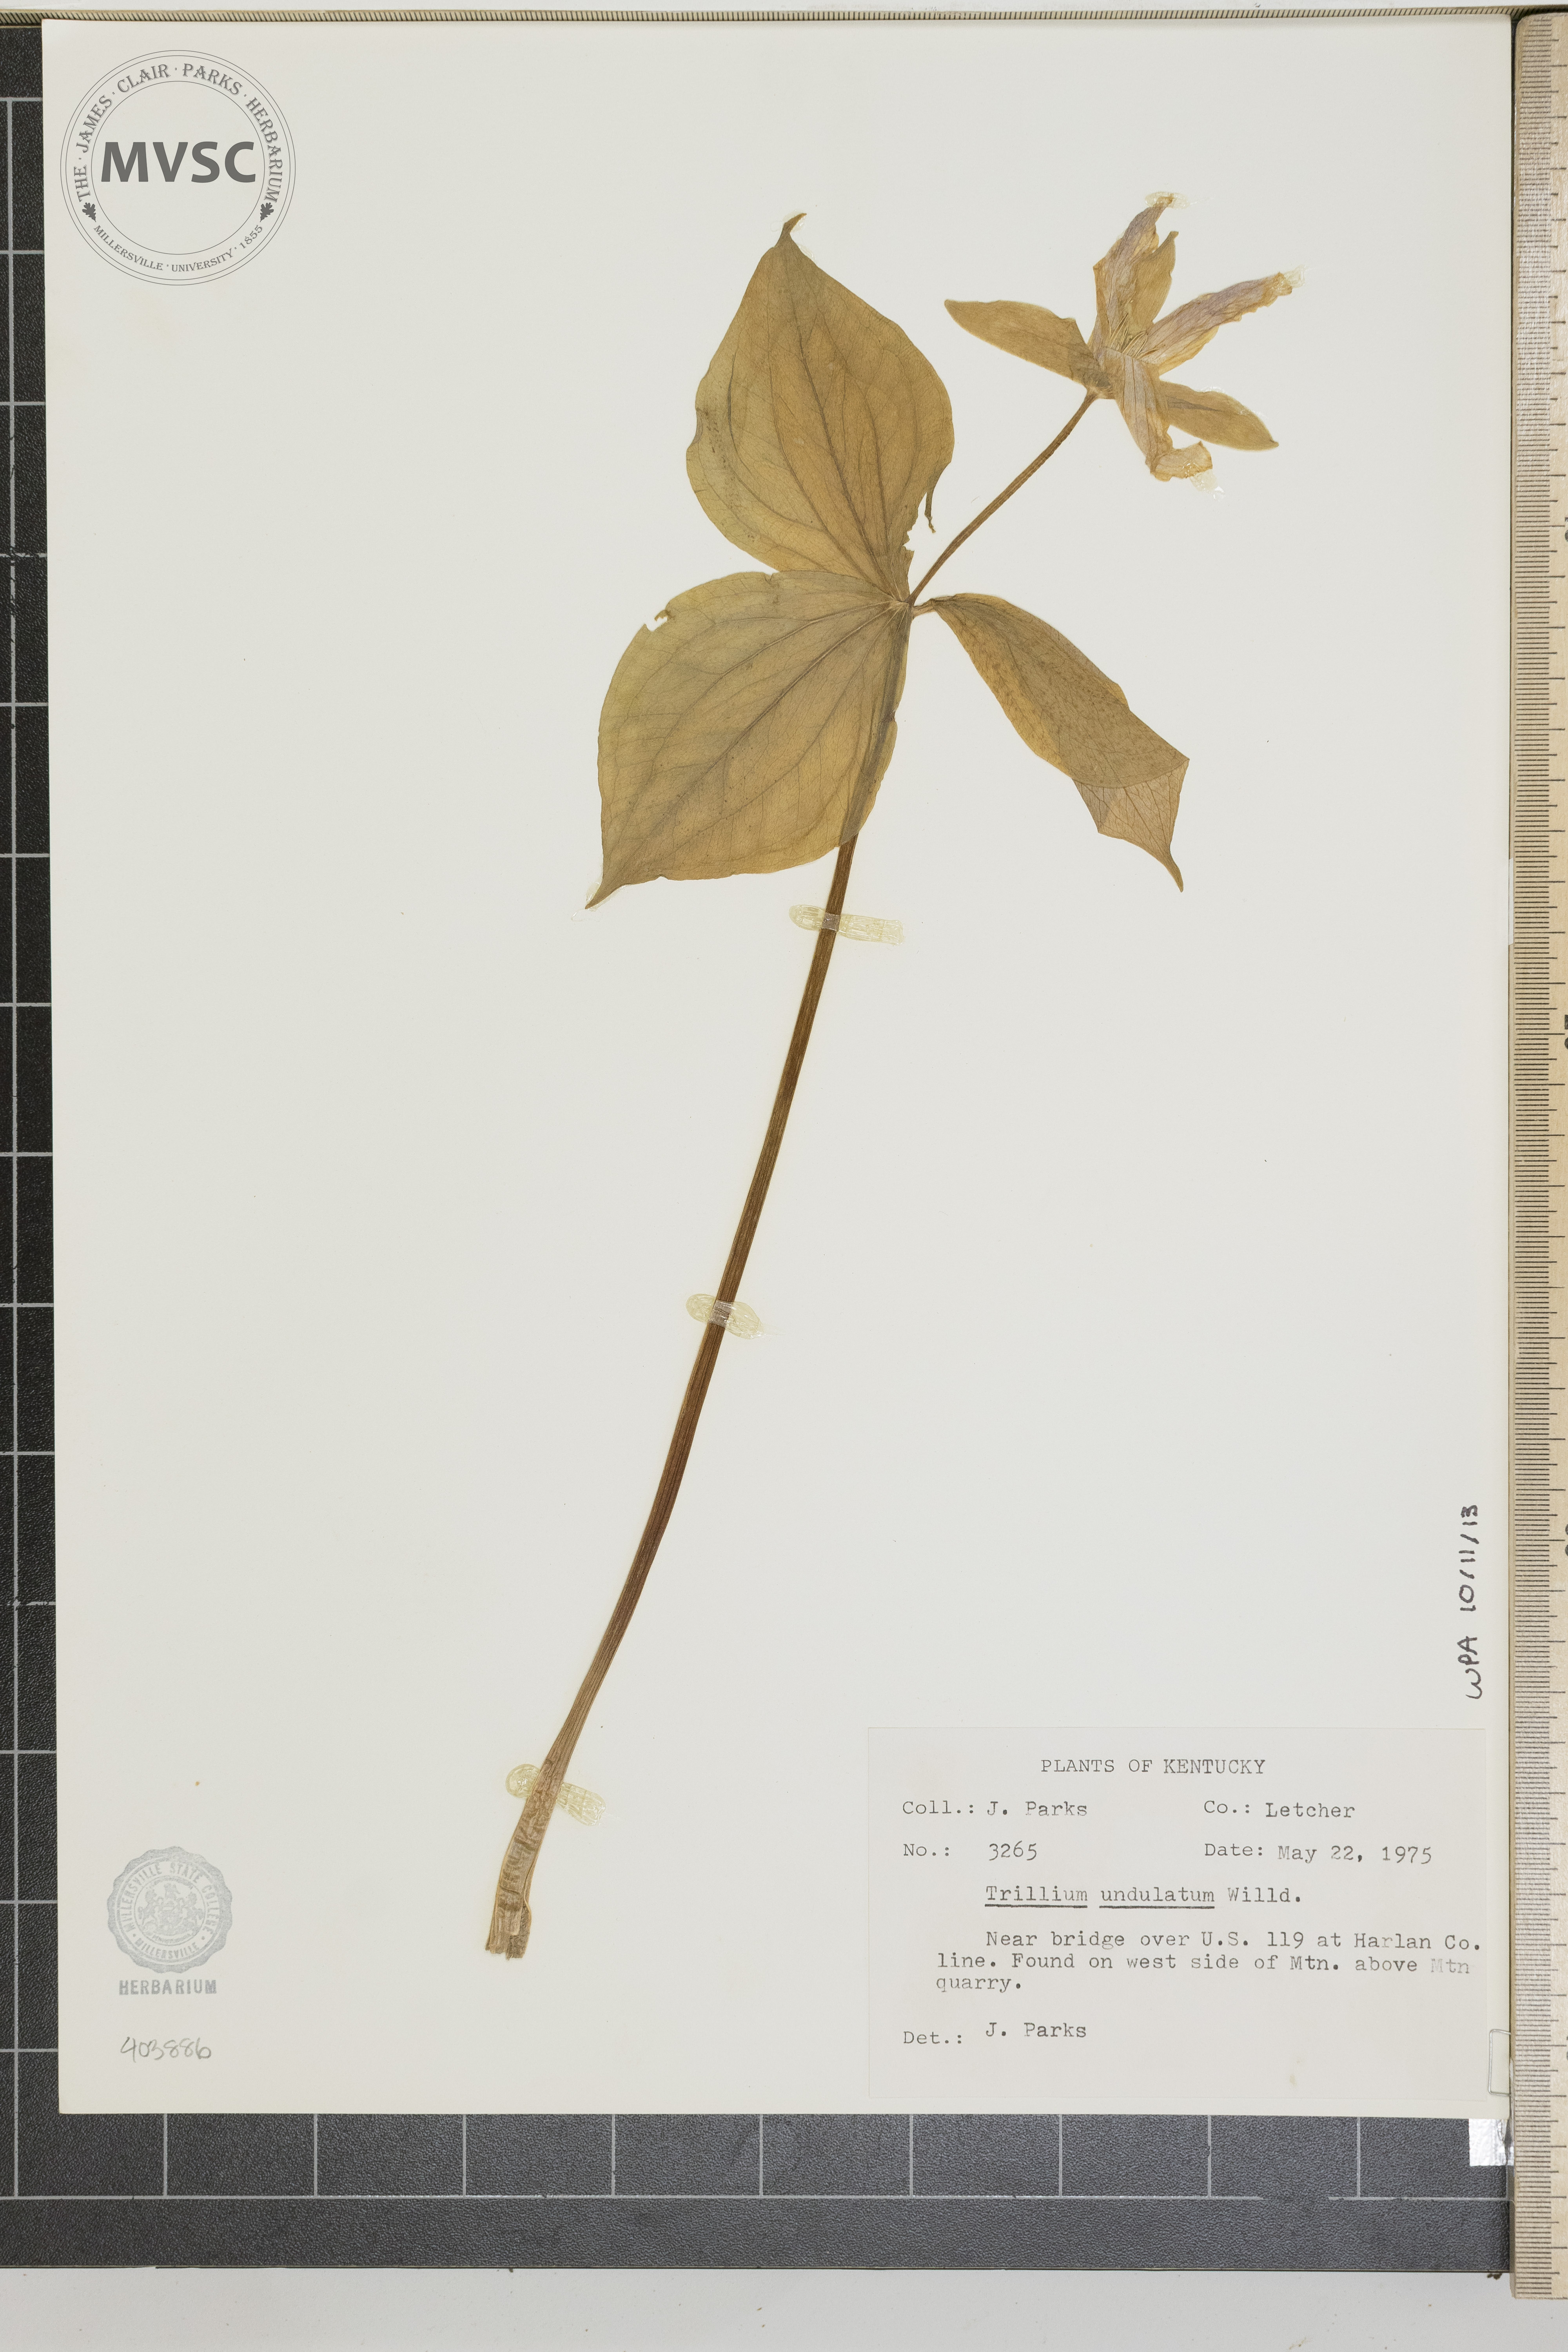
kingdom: Plantae
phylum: Tracheophyta
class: Liliopsida
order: Liliales
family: Melanthiaceae
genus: Trillium
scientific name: Trillium undulatum
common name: Paint trillium
